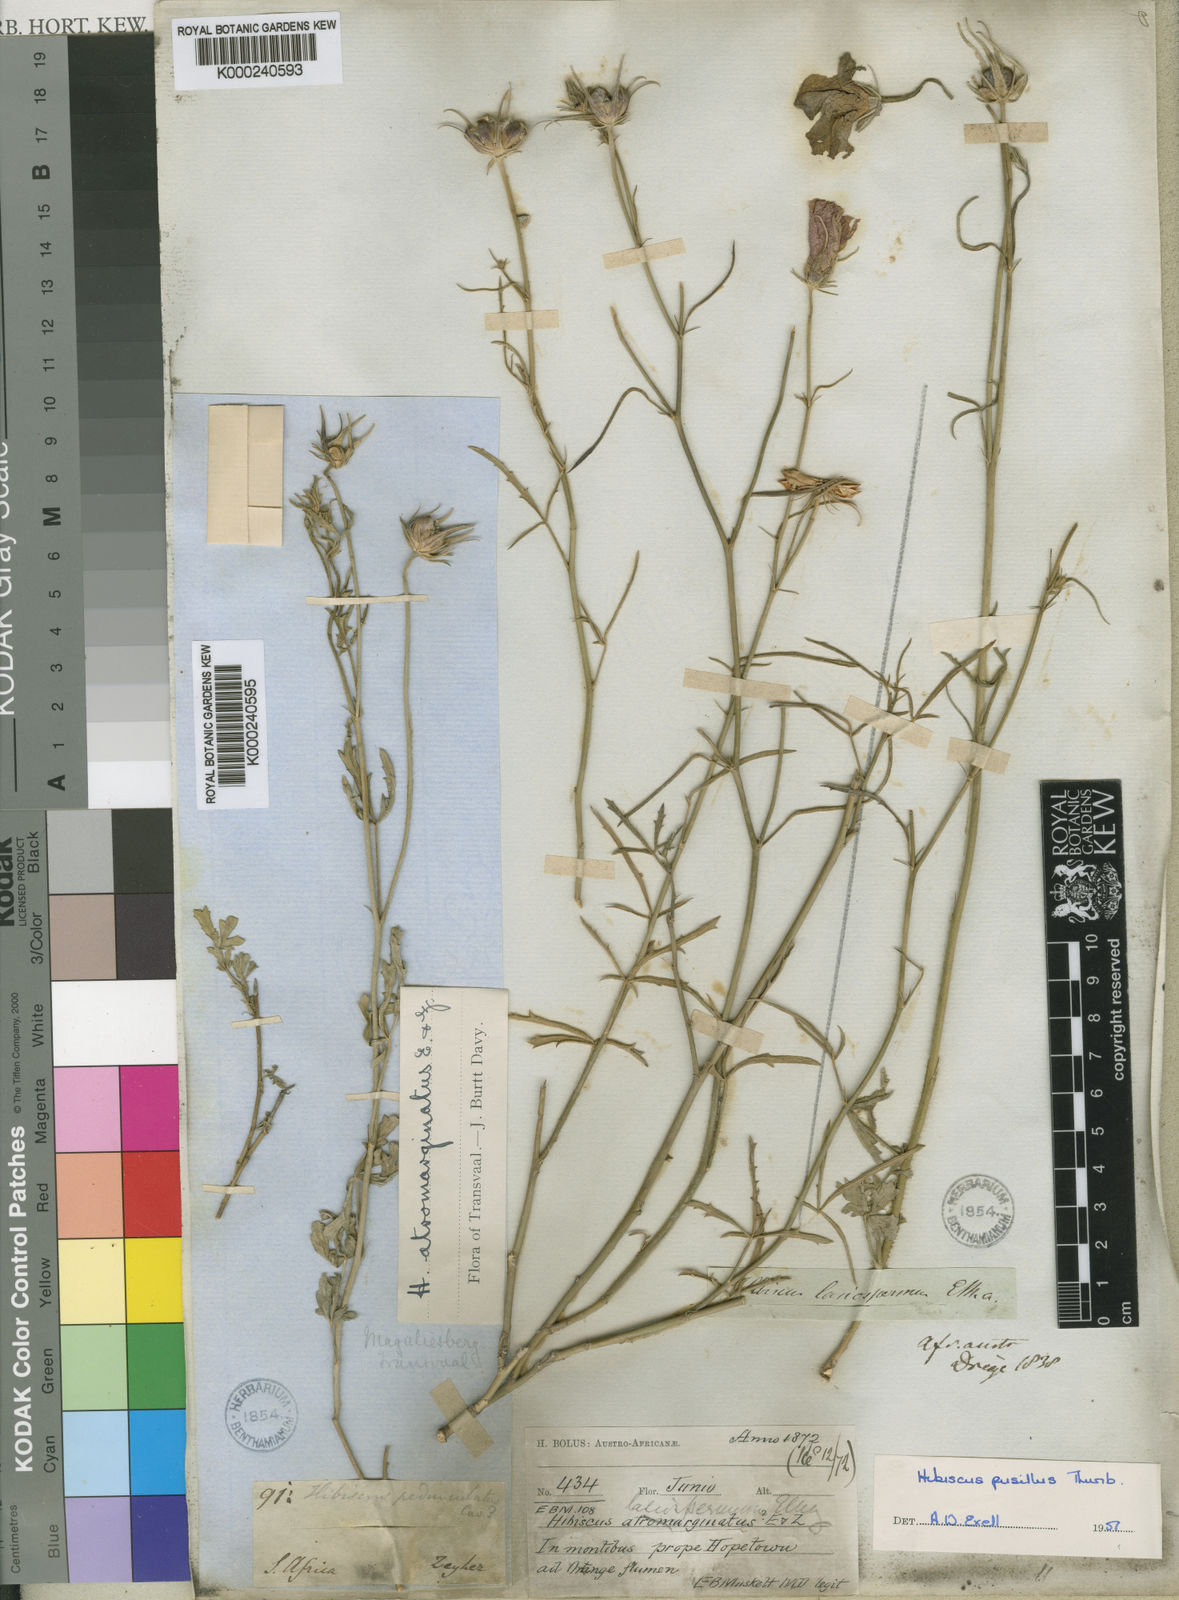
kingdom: Plantae
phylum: Tracheophyta
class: Magnoliopsida
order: Malvales
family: Malvaceae
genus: Hibiscus
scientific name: Hibiscus pusillus
